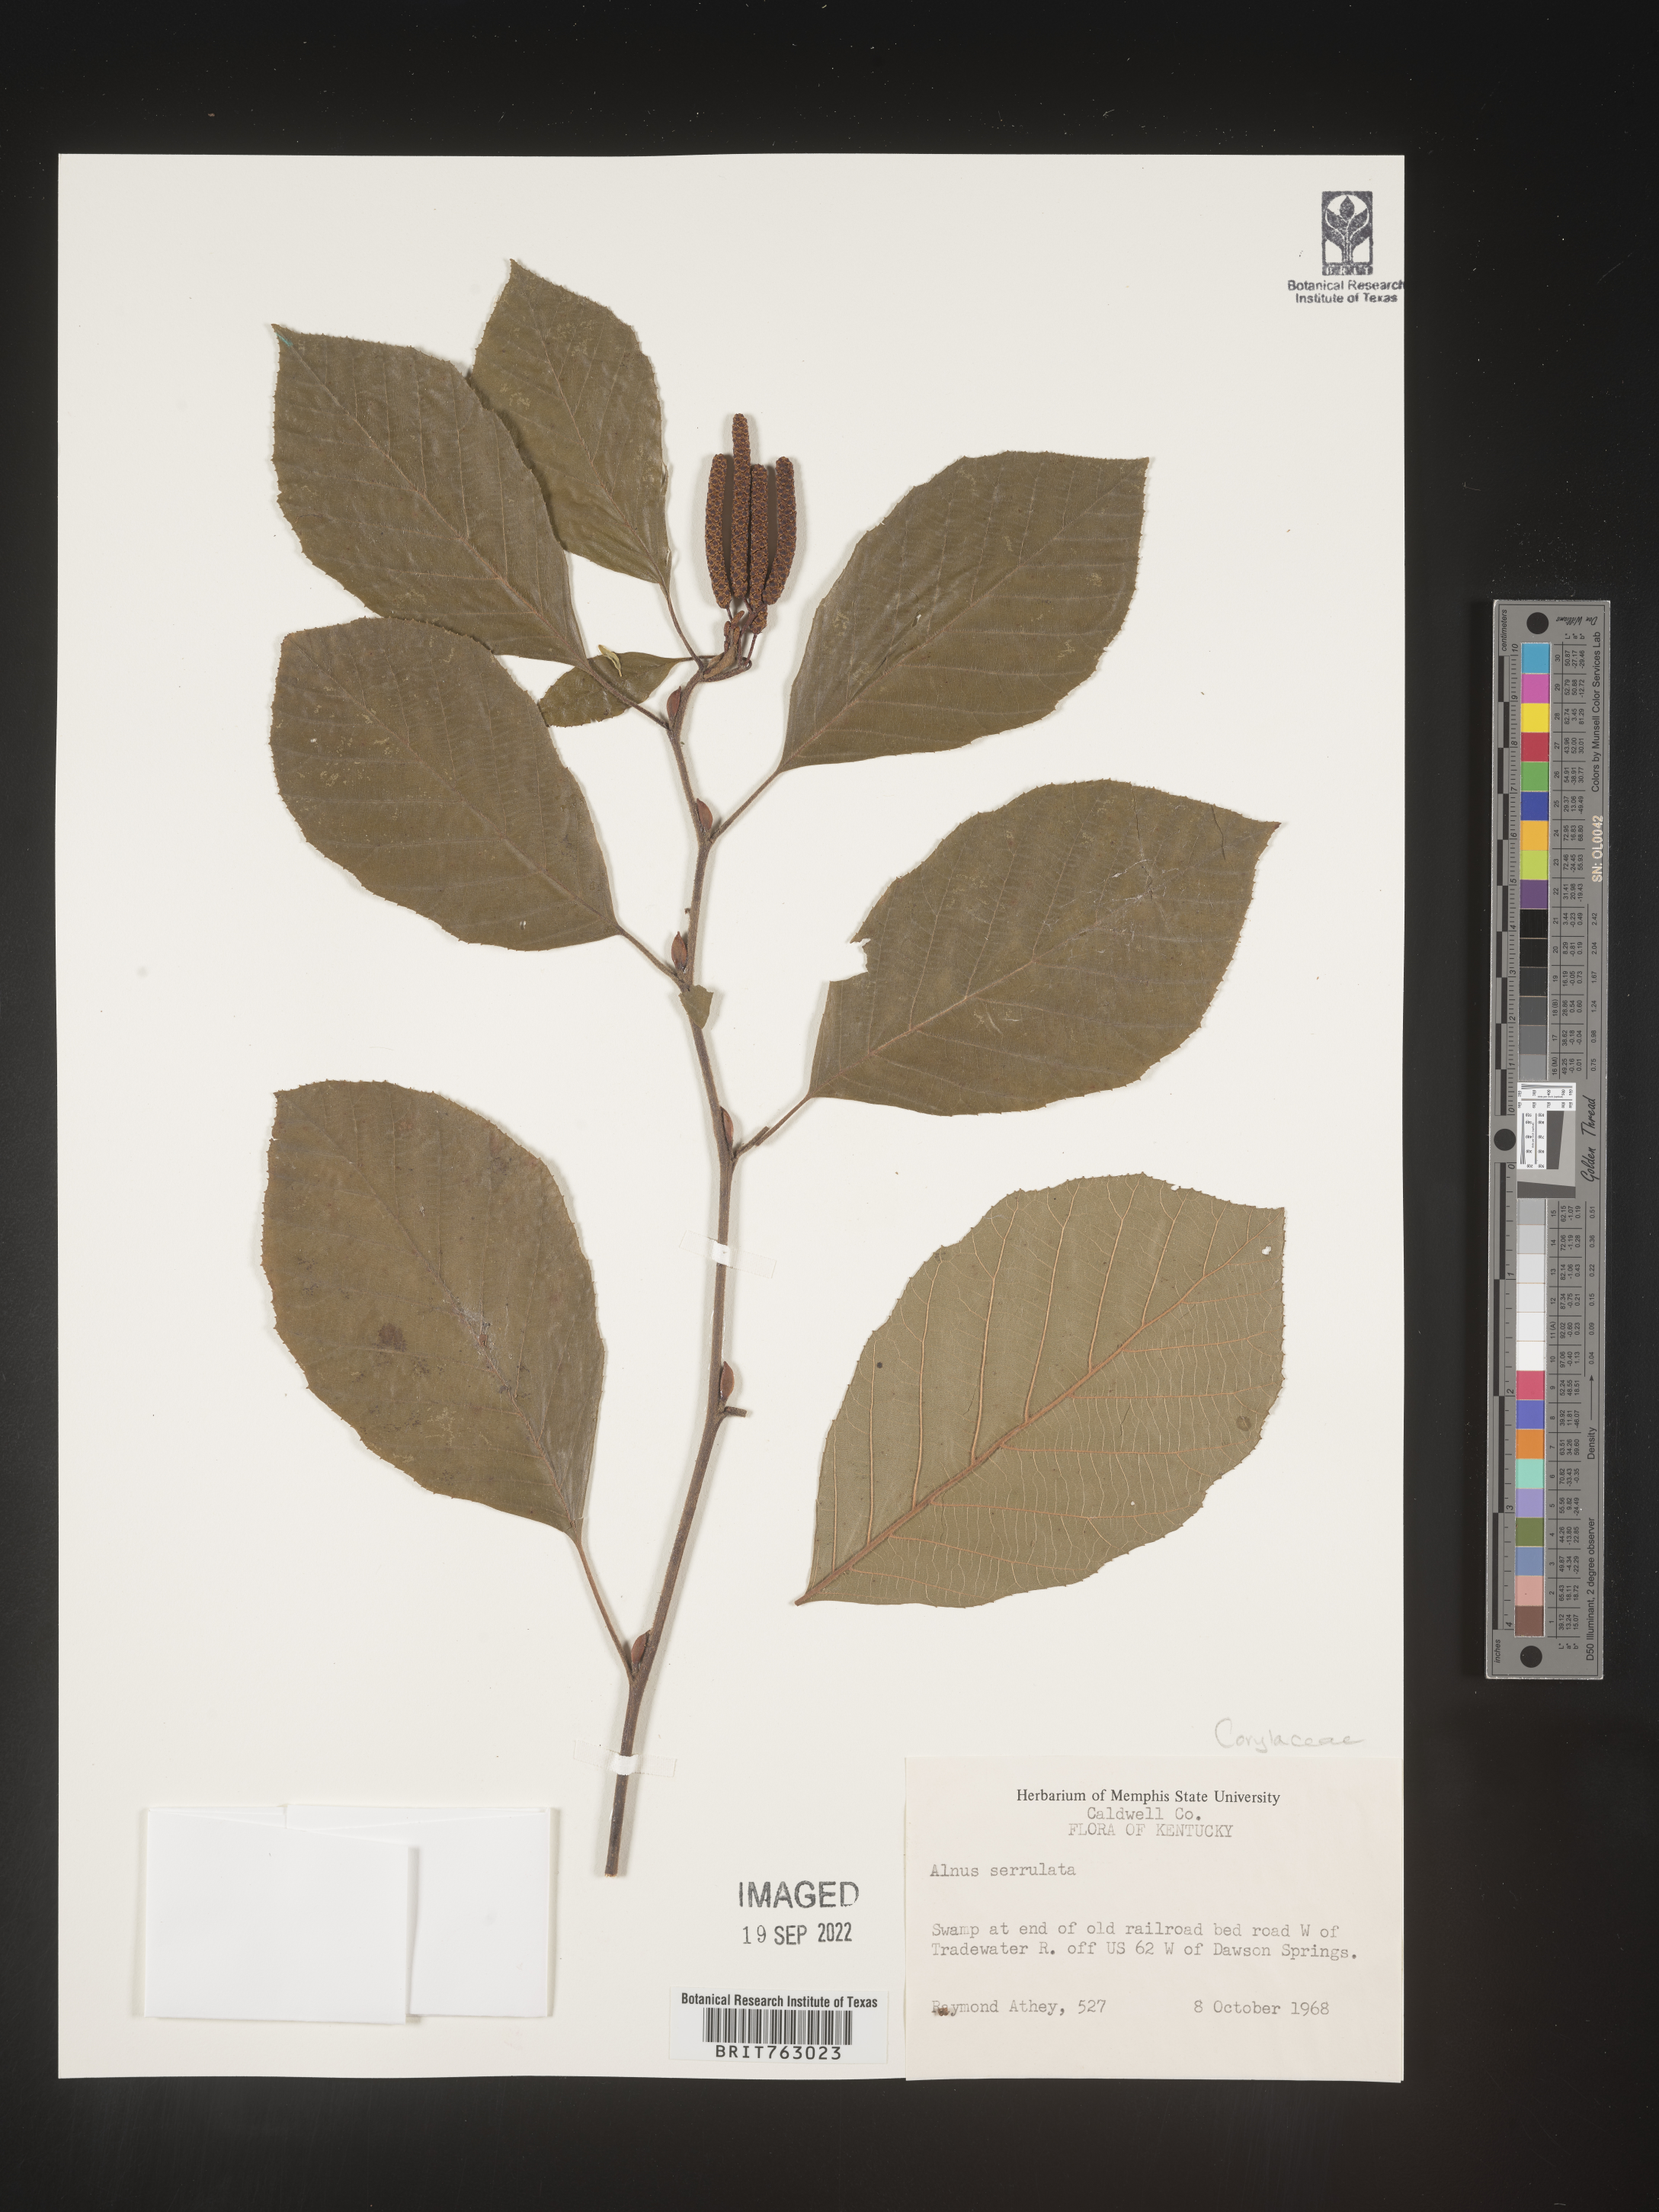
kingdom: Plantae
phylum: Tracheophyta
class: Magnoliopsida
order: Fagales
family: Betulaceae
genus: Alnus
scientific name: Alnus serrulata
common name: Hazel alder
